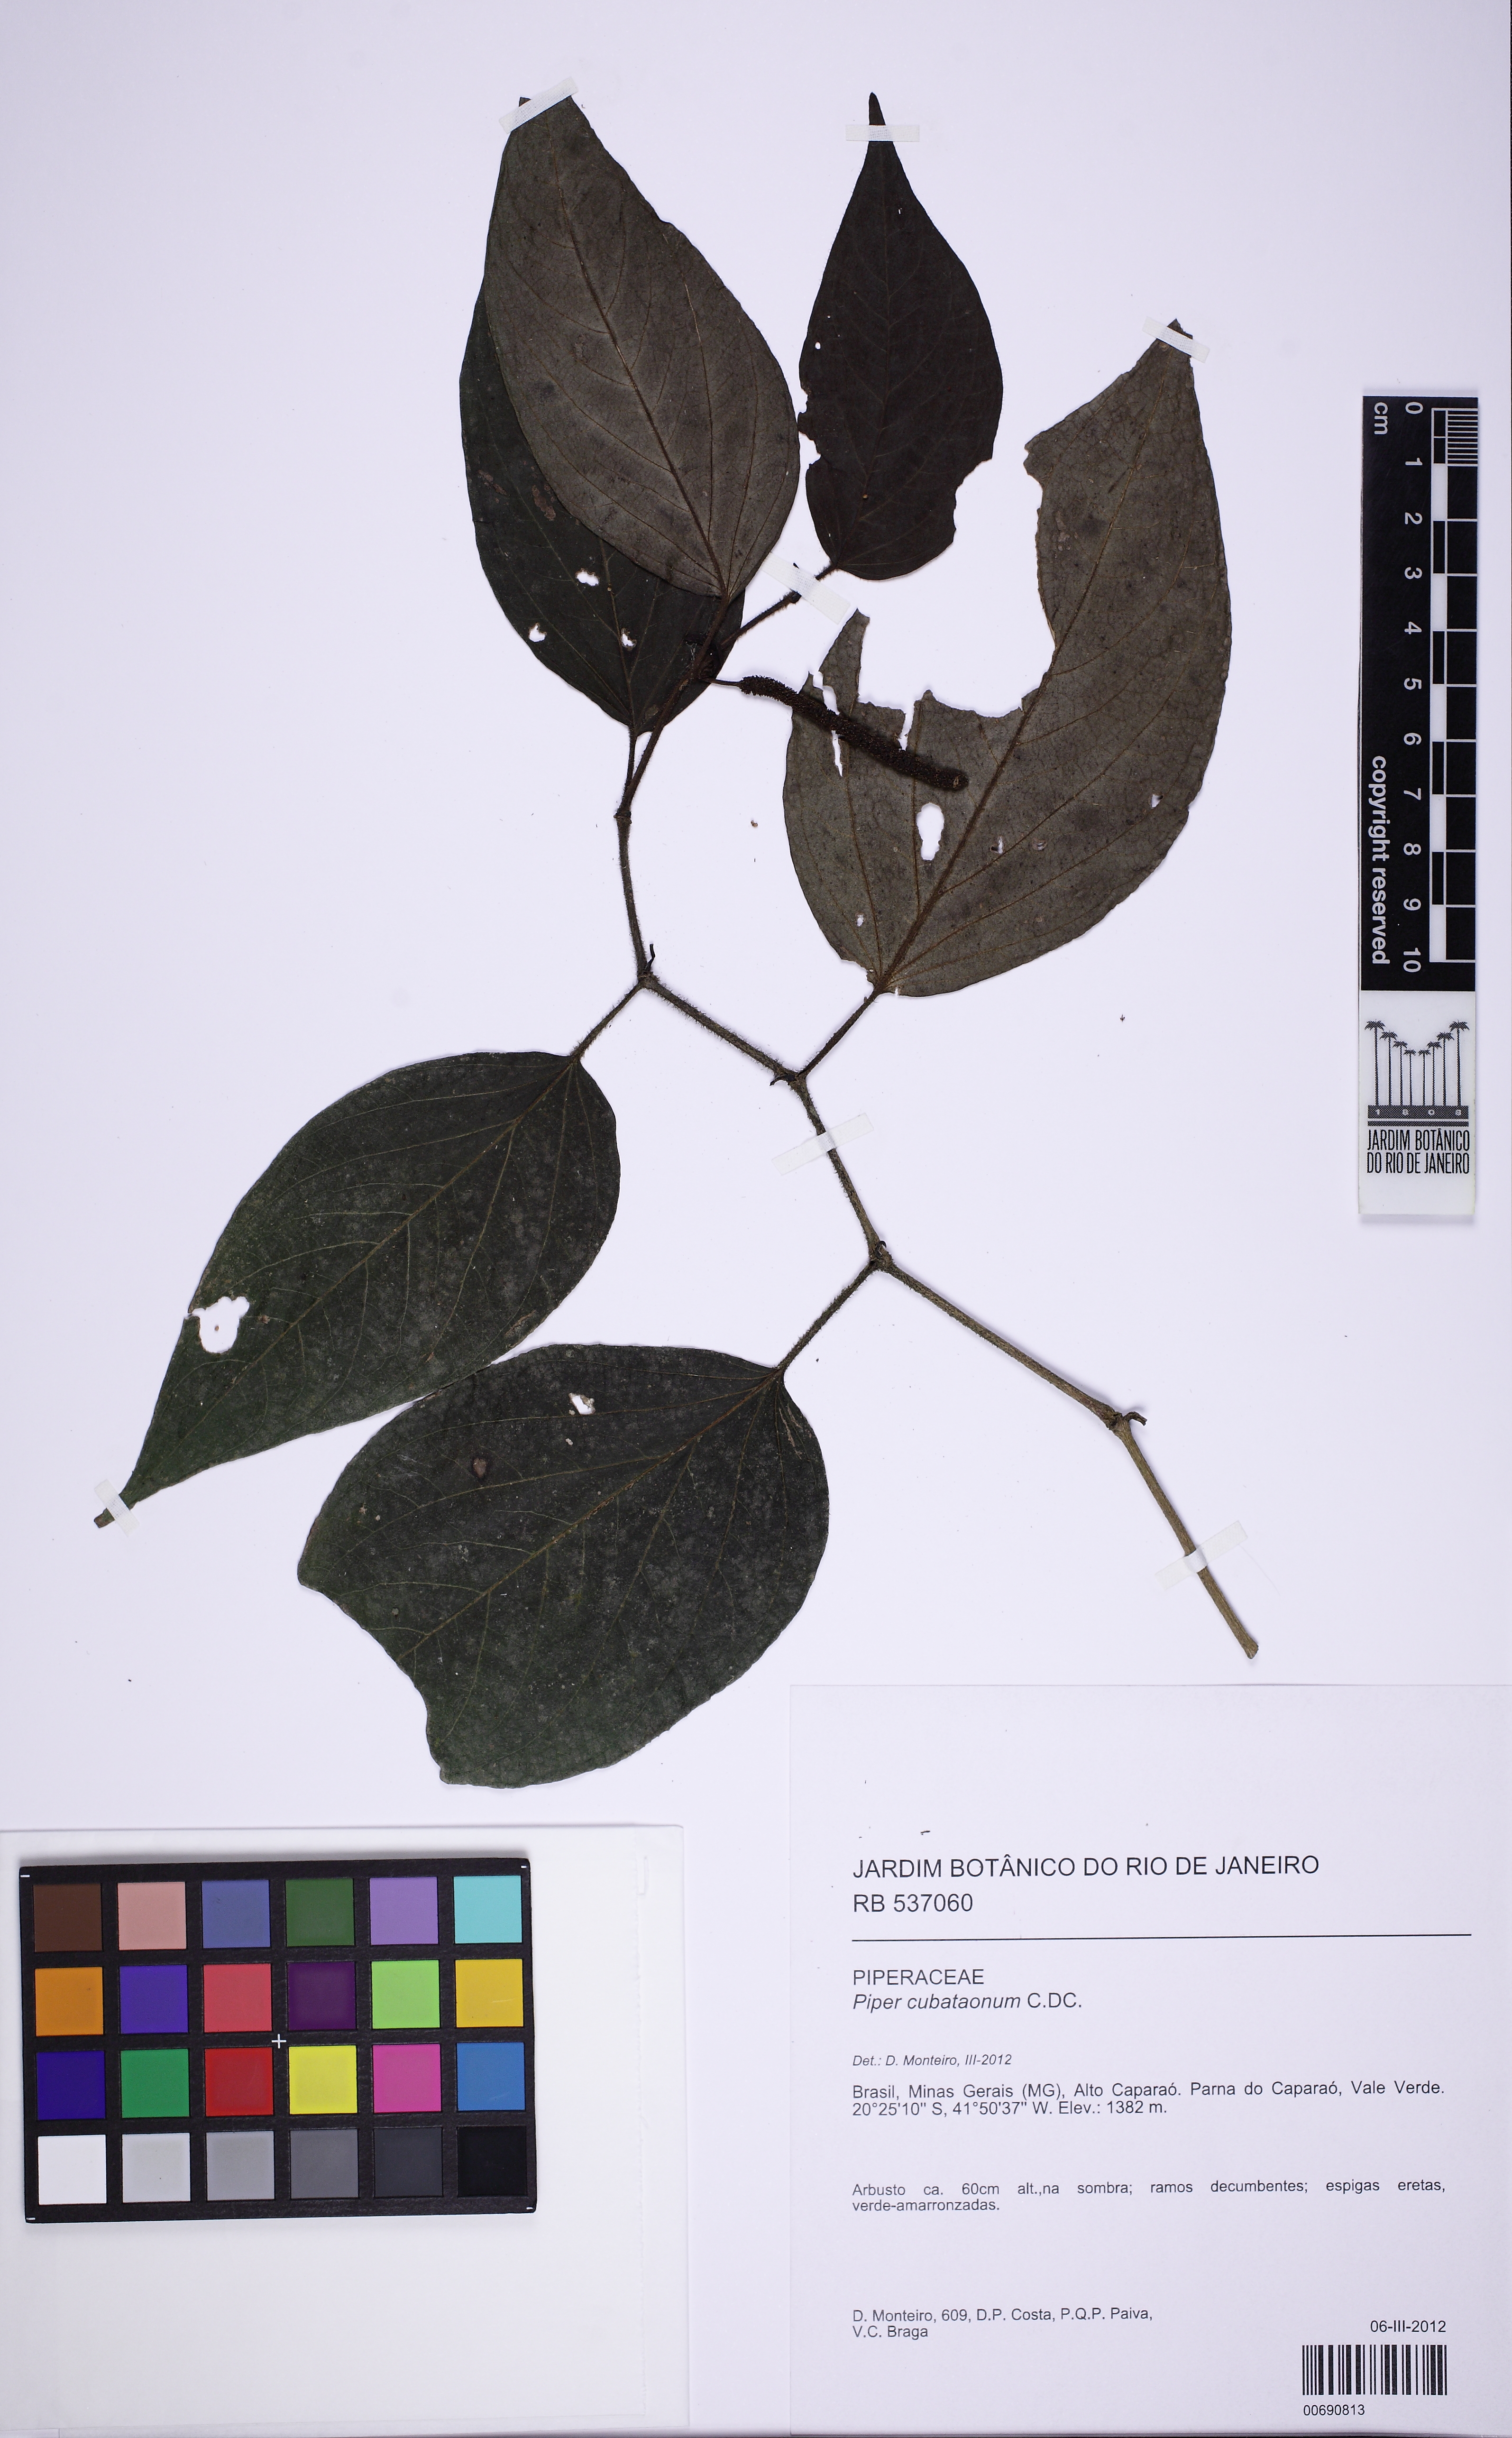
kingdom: Plantae
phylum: Tracheophyta
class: Magnoliopsida
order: Piperales
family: Piperaceae
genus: Piper
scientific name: Piper cubataonum
